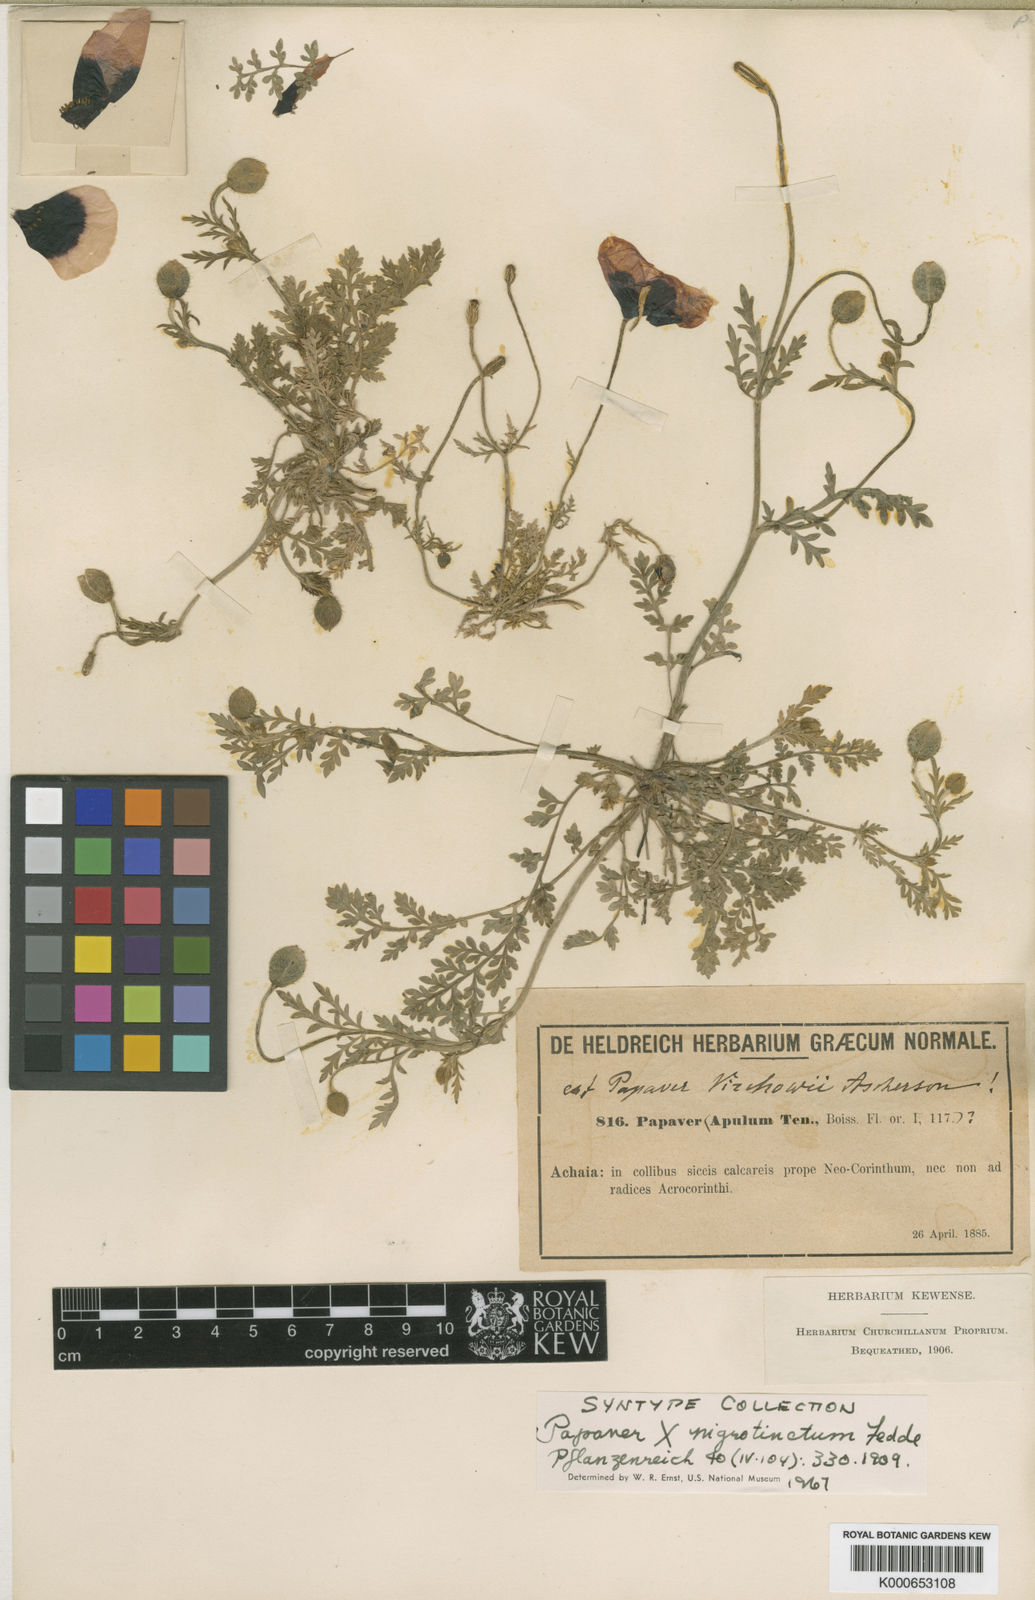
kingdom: Plantae
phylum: Tracheophyta
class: Magnoliopsida
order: Ranunculales
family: Papaveraceae
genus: Roemeria
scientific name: Roemeria nigrotincta
